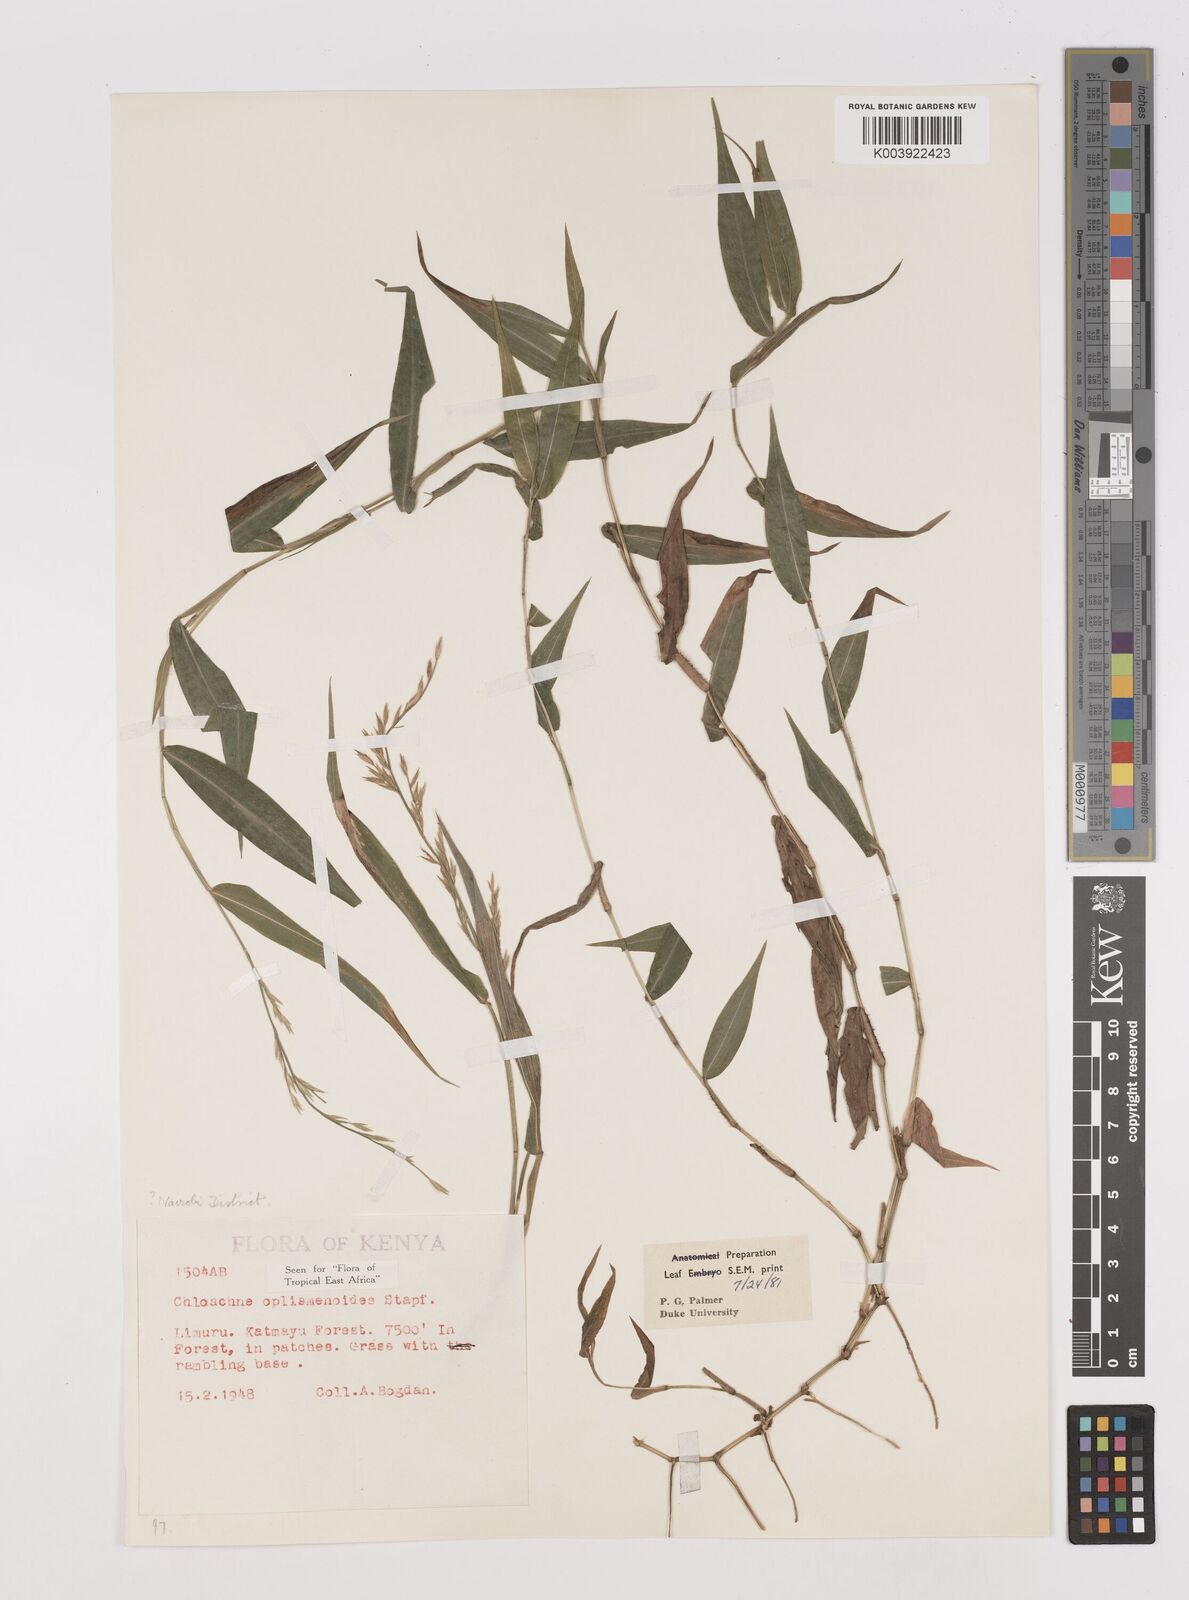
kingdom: Plantae
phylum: Tracheophyta
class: Liliopsida
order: Poales
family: Poaceae
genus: Poecilostachys
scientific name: Poecilostachys oplismenoides
